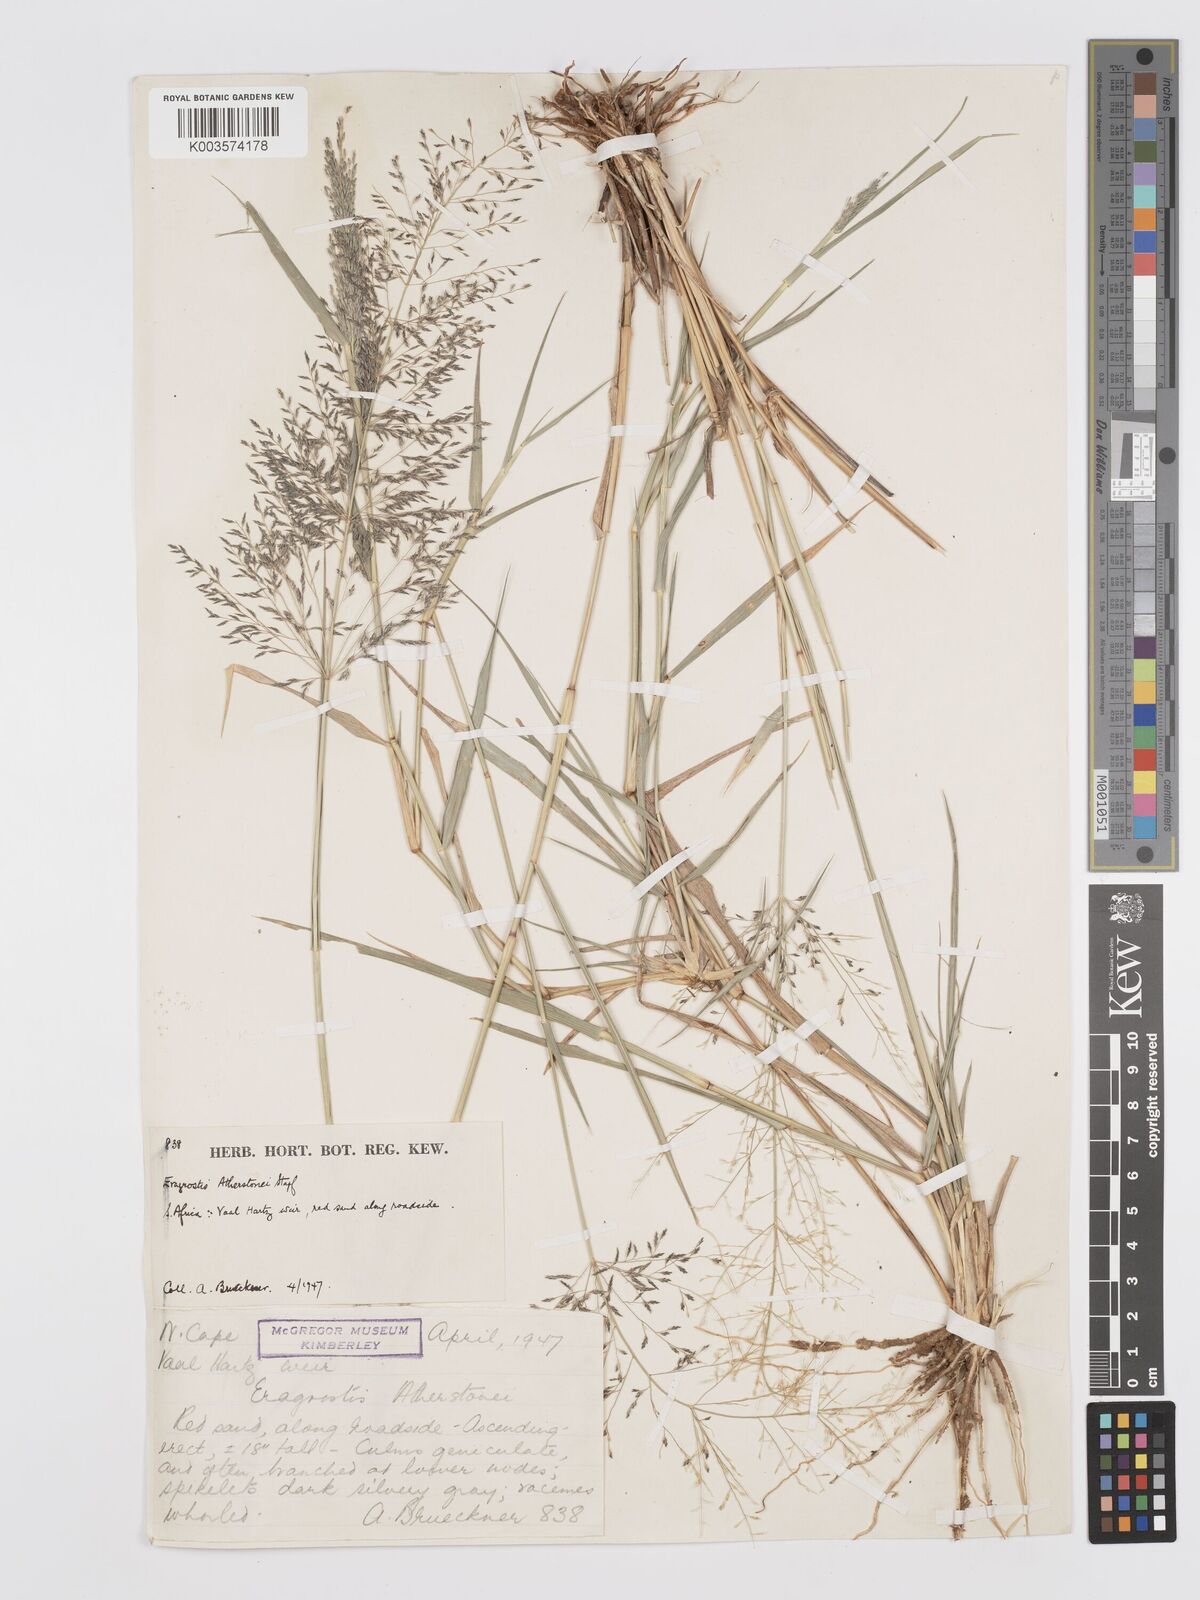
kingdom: Plantae
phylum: Tracheophyta
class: Liliopsida
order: Poales
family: Poaceae
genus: Eragrostis
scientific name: Eragrostis cylindriflora
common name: Cylinderflower lovegrass
